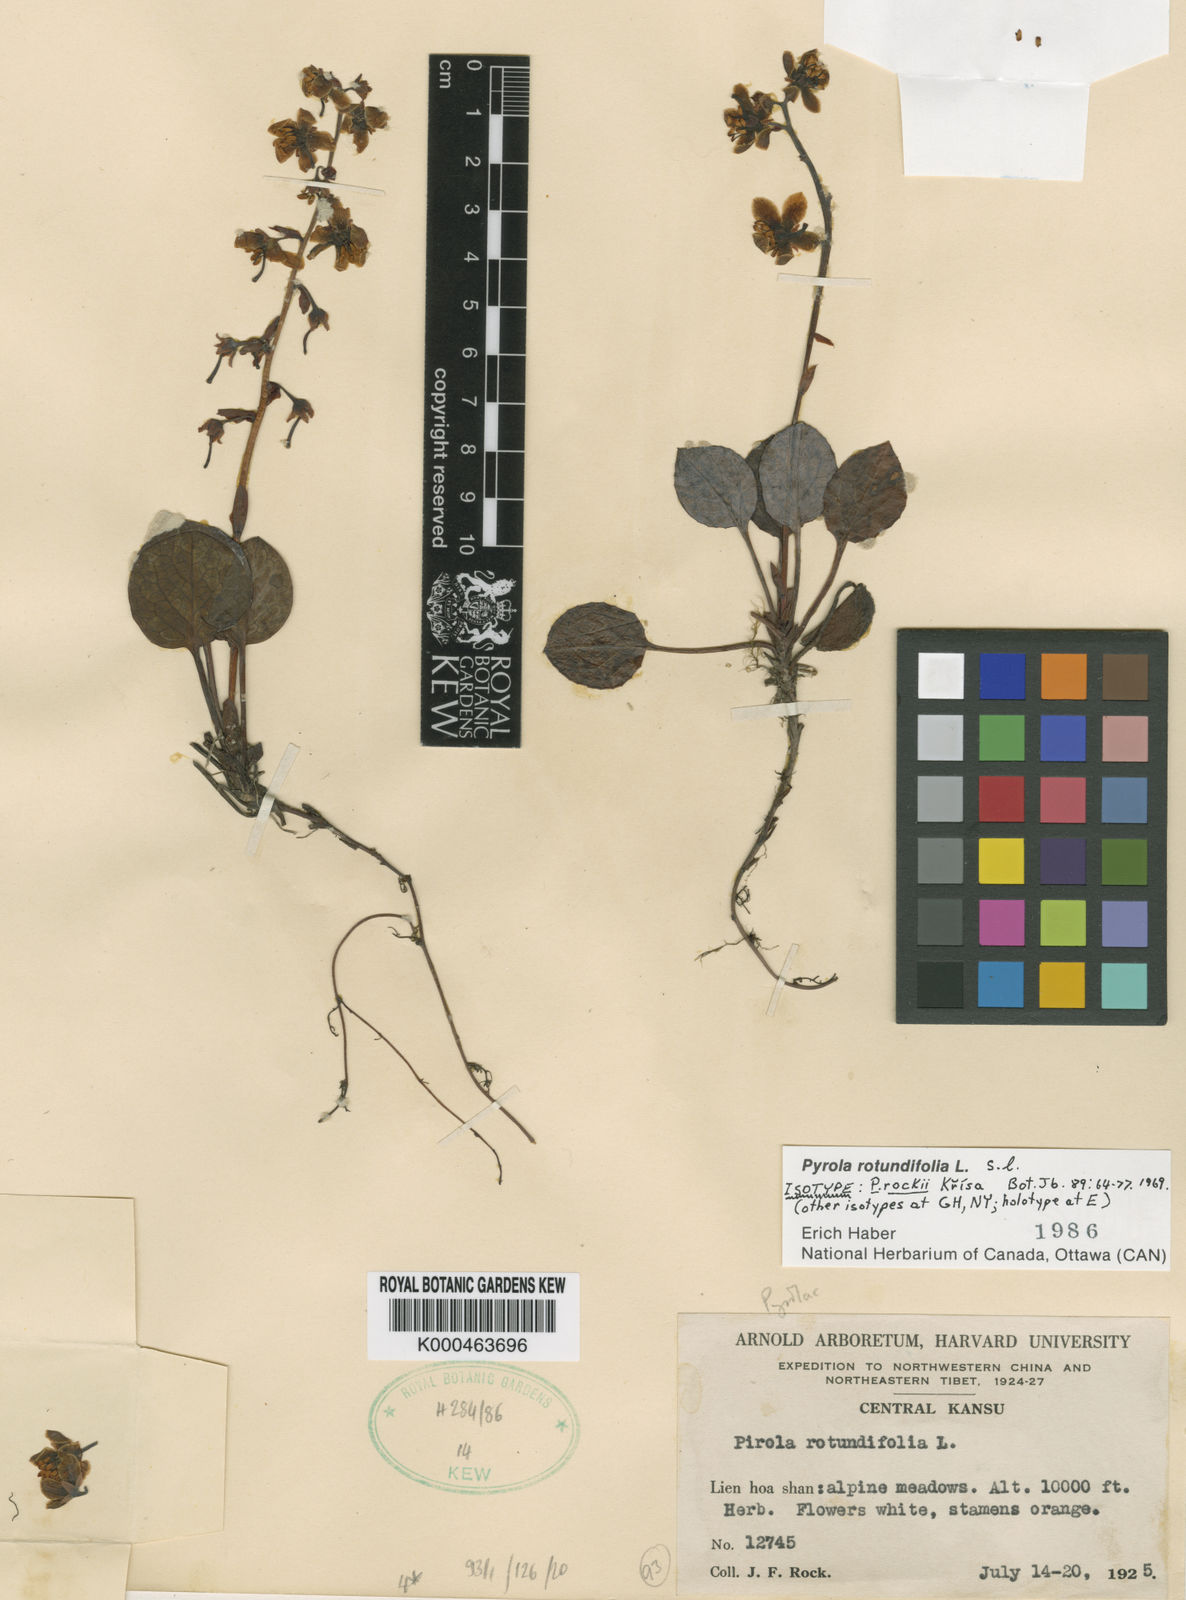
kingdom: Plantae
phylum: Tracheophyta
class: Magnoliopsida
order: Ericales
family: Ericaceae
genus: Pyrola
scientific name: Pyrola rotundifolia
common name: Round-leaved wintergreen
